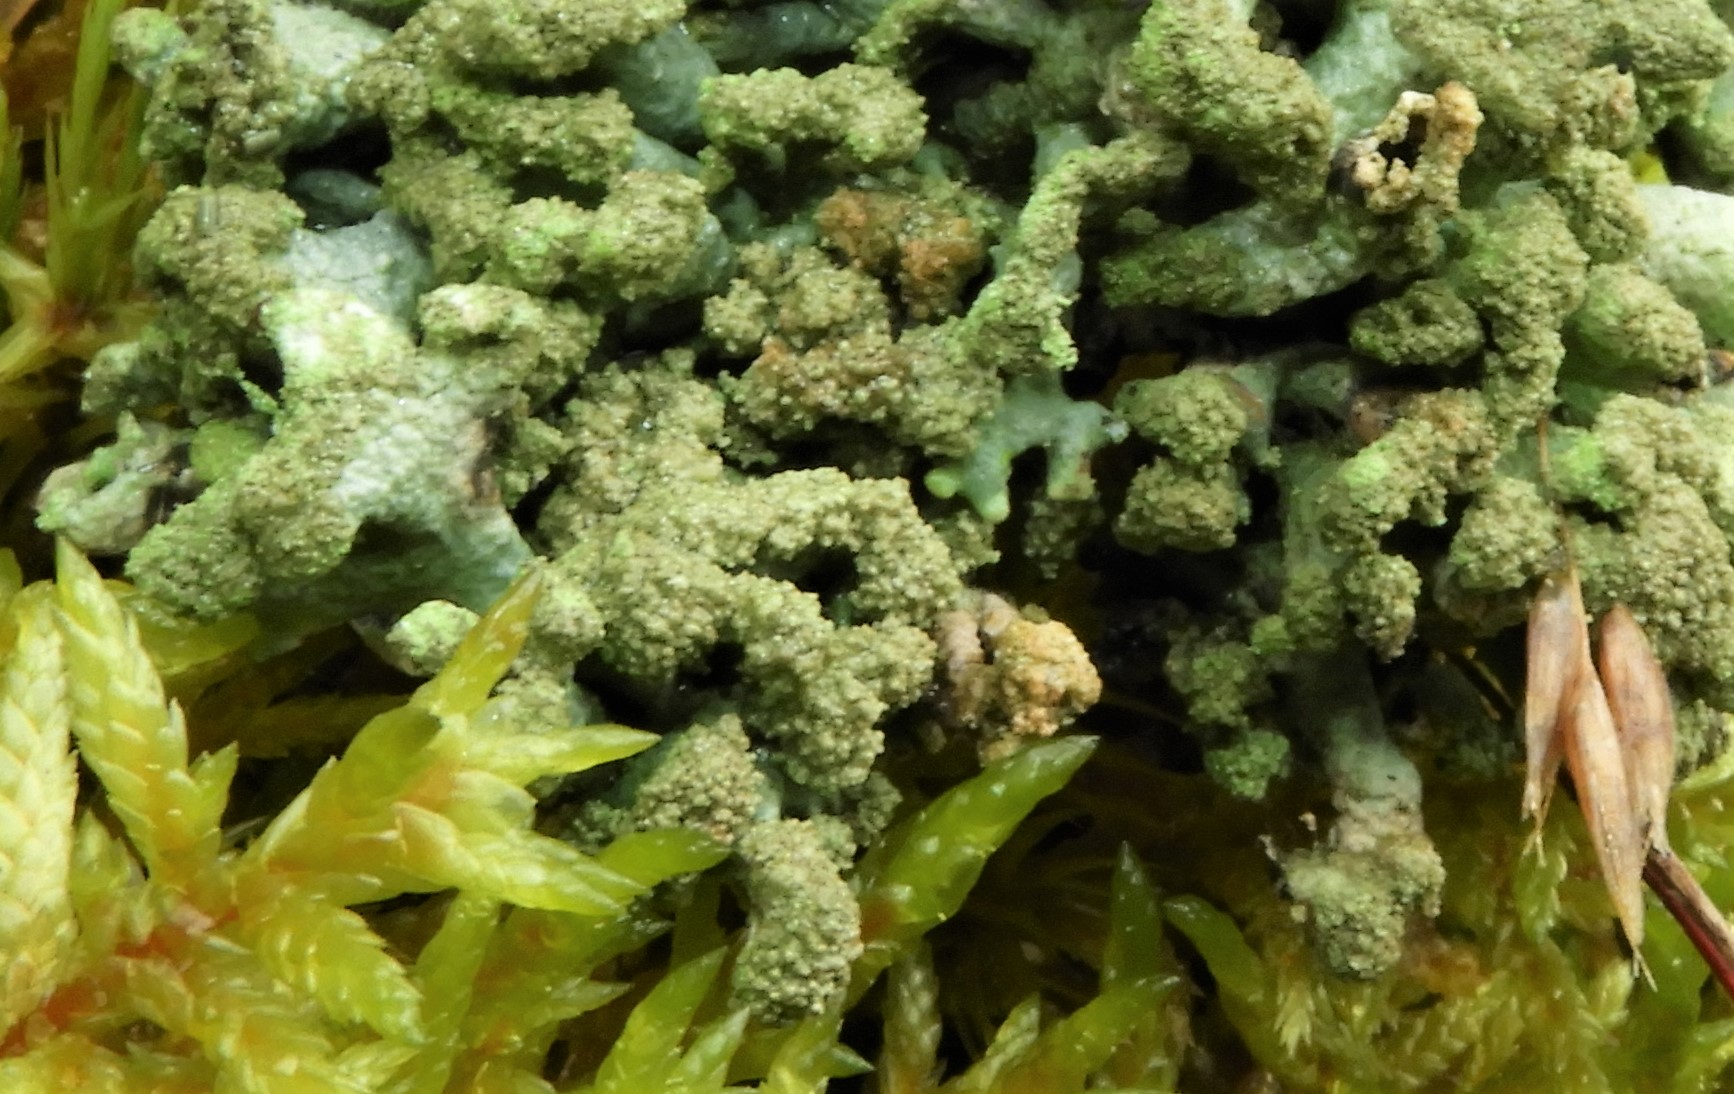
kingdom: Fungi
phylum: Ascomycota
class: Lecanoromycetes
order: Lecanorales
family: Parmeliaceae
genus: Hypogymnia
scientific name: Hypogymnia tubulosa
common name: finger-kvistlav
